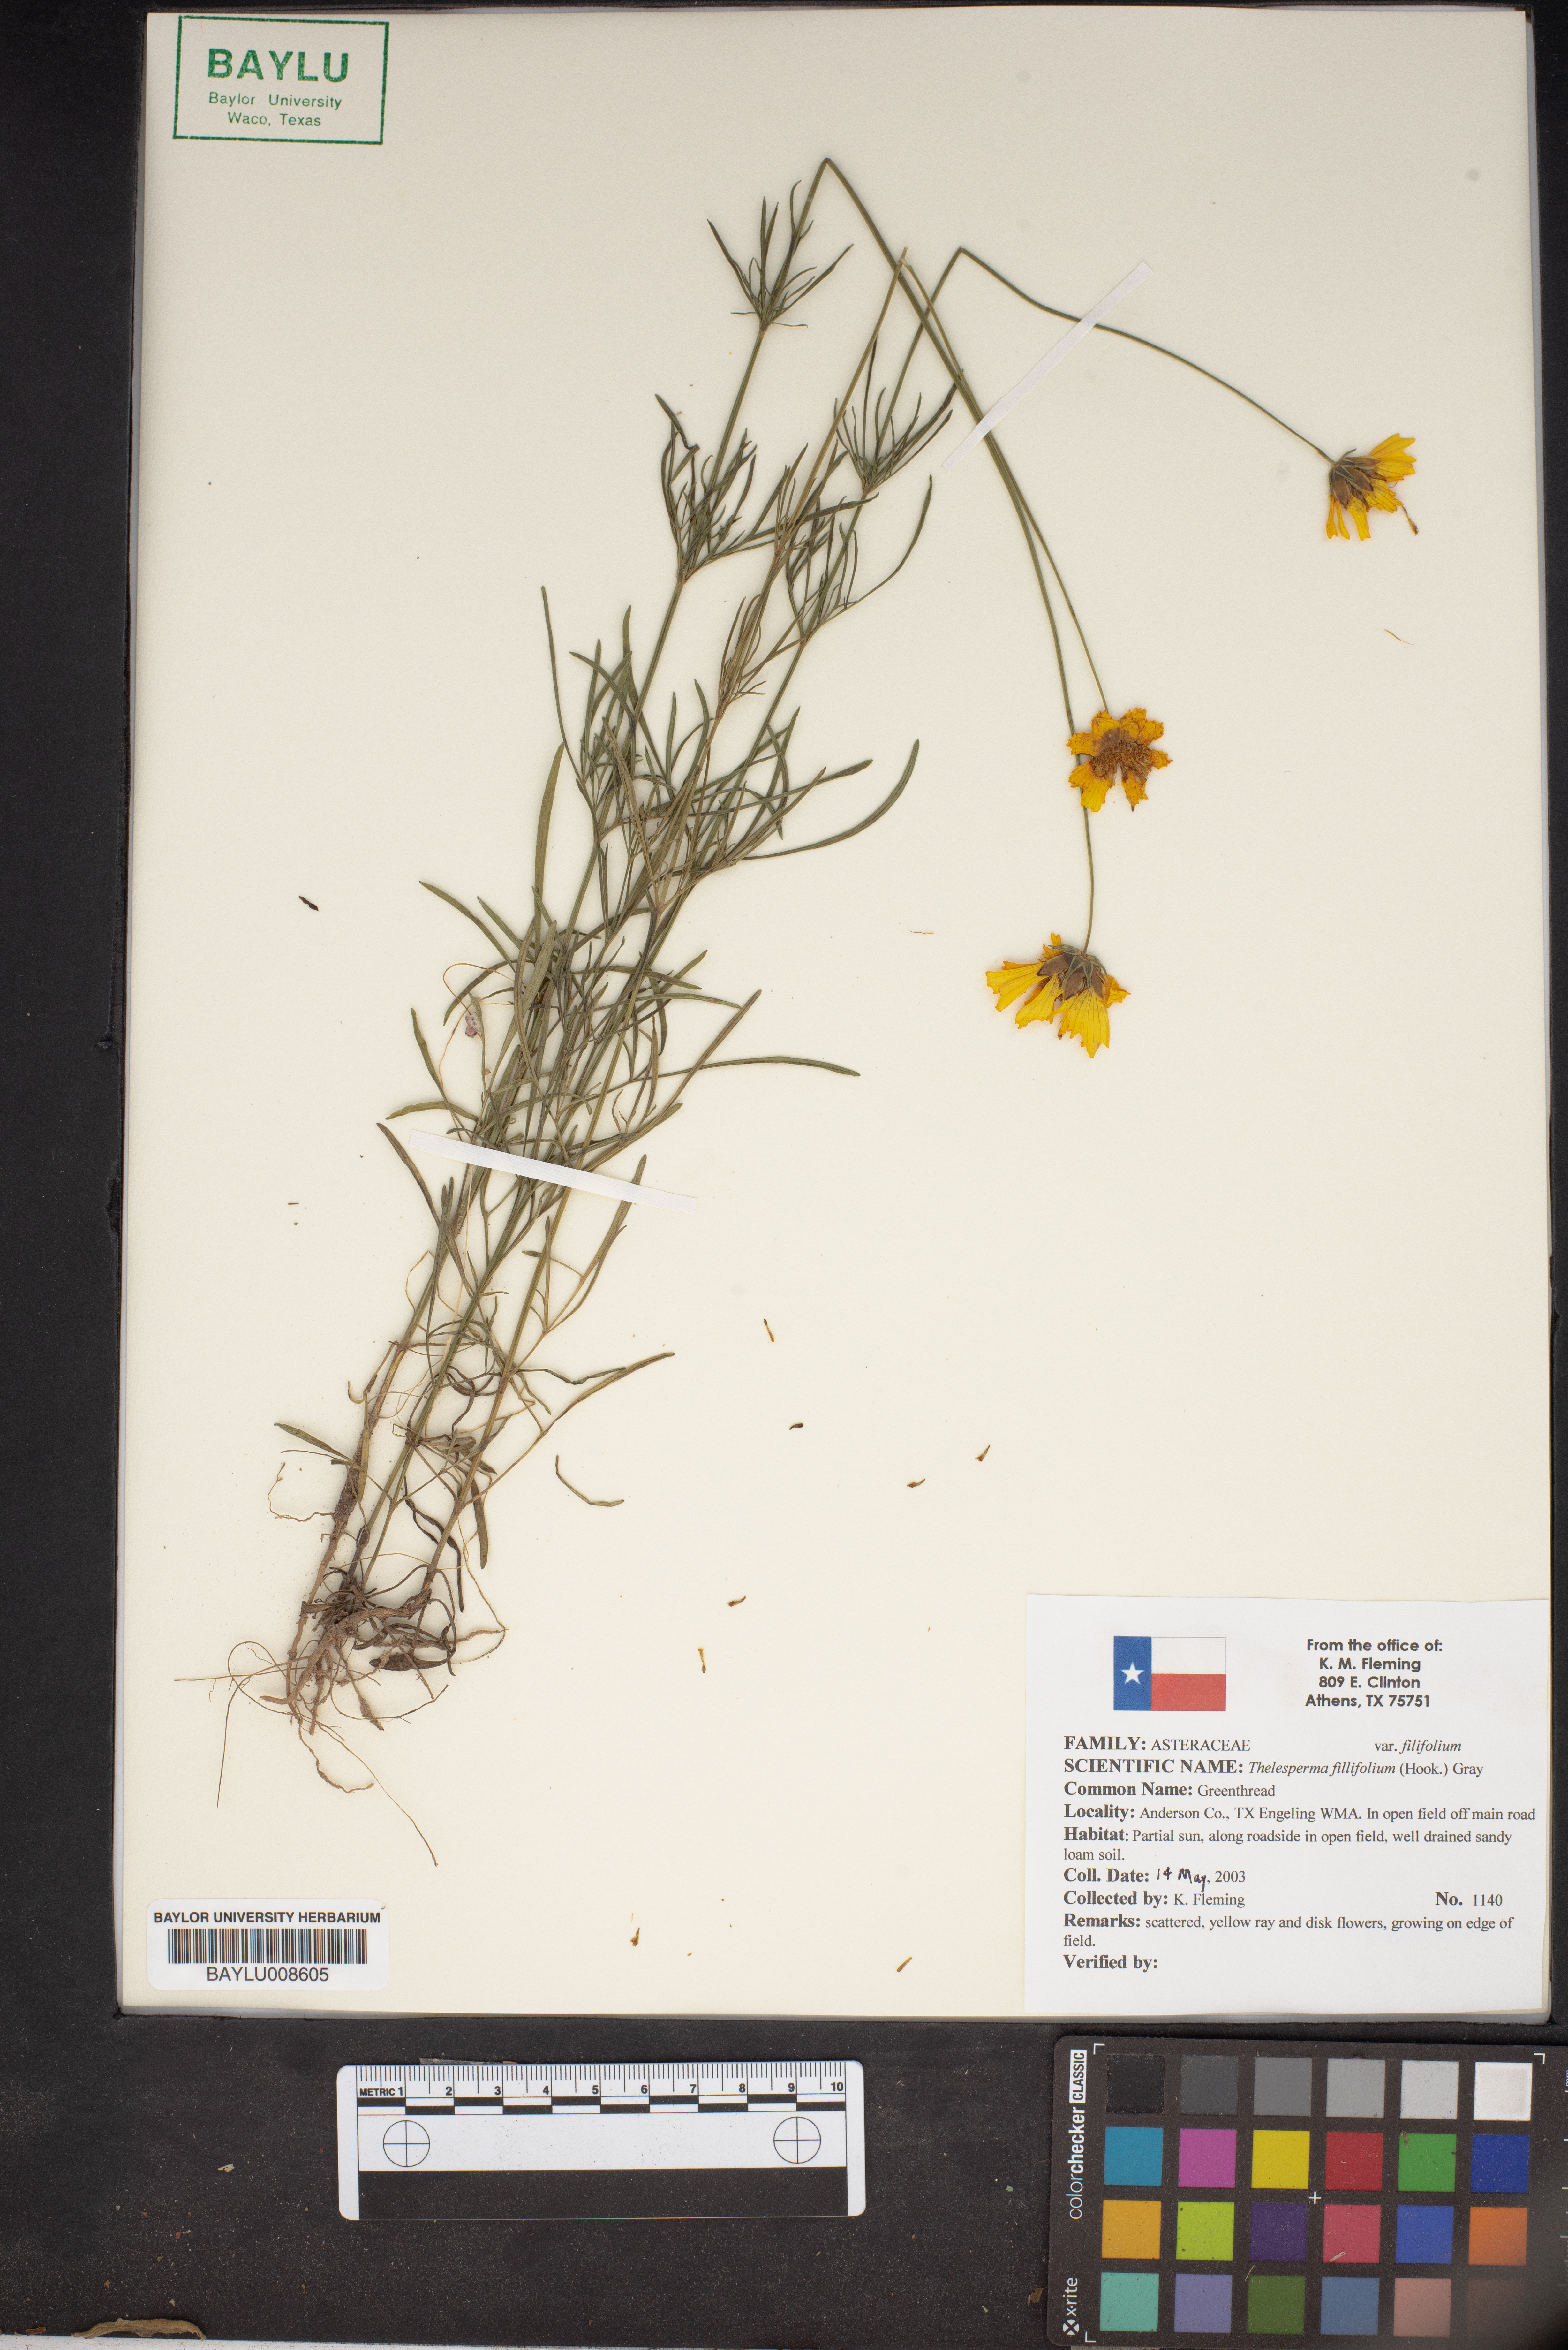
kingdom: Plantae
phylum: Tracheophyta
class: Magnoliopsida
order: Asterales
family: Asteraceae
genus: Thelesperma
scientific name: Thelesperma filifolium
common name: Stiff greenthread
